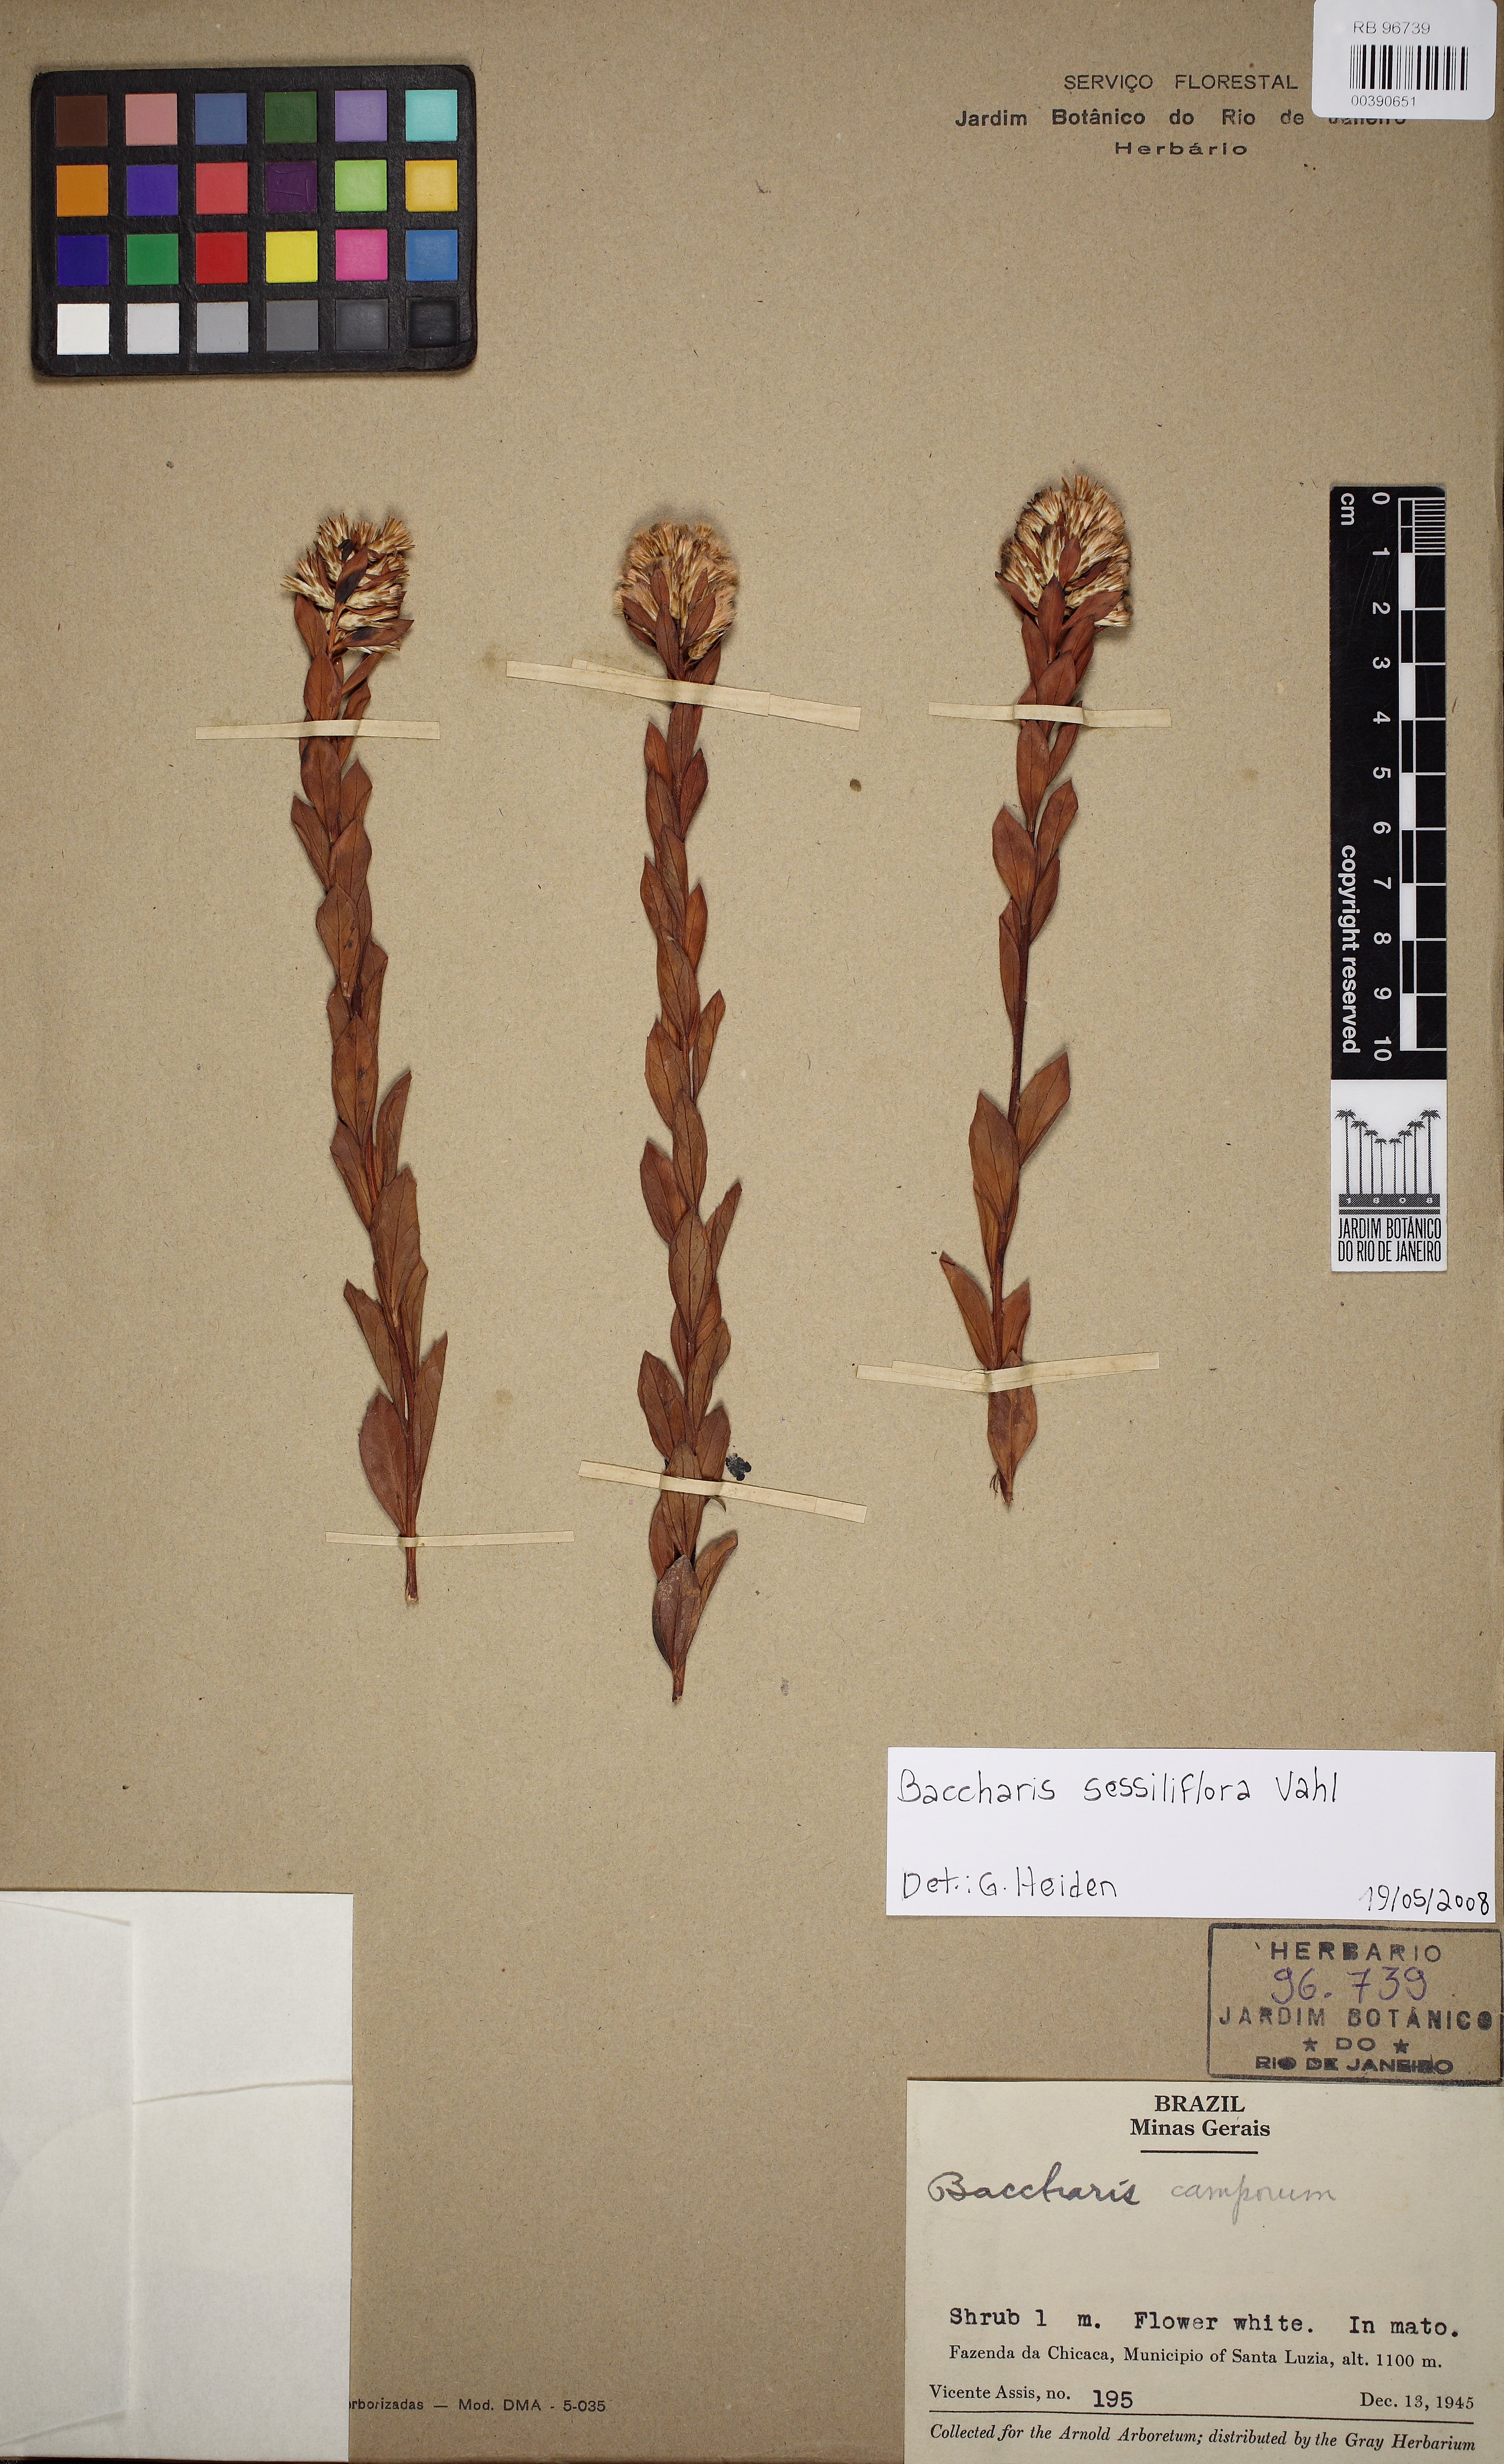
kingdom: Plantae
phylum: Tracheophyta
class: Magnoliopsida
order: Asterales
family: Asteraceae
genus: Baccharis
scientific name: Baccharis sessiliflora
